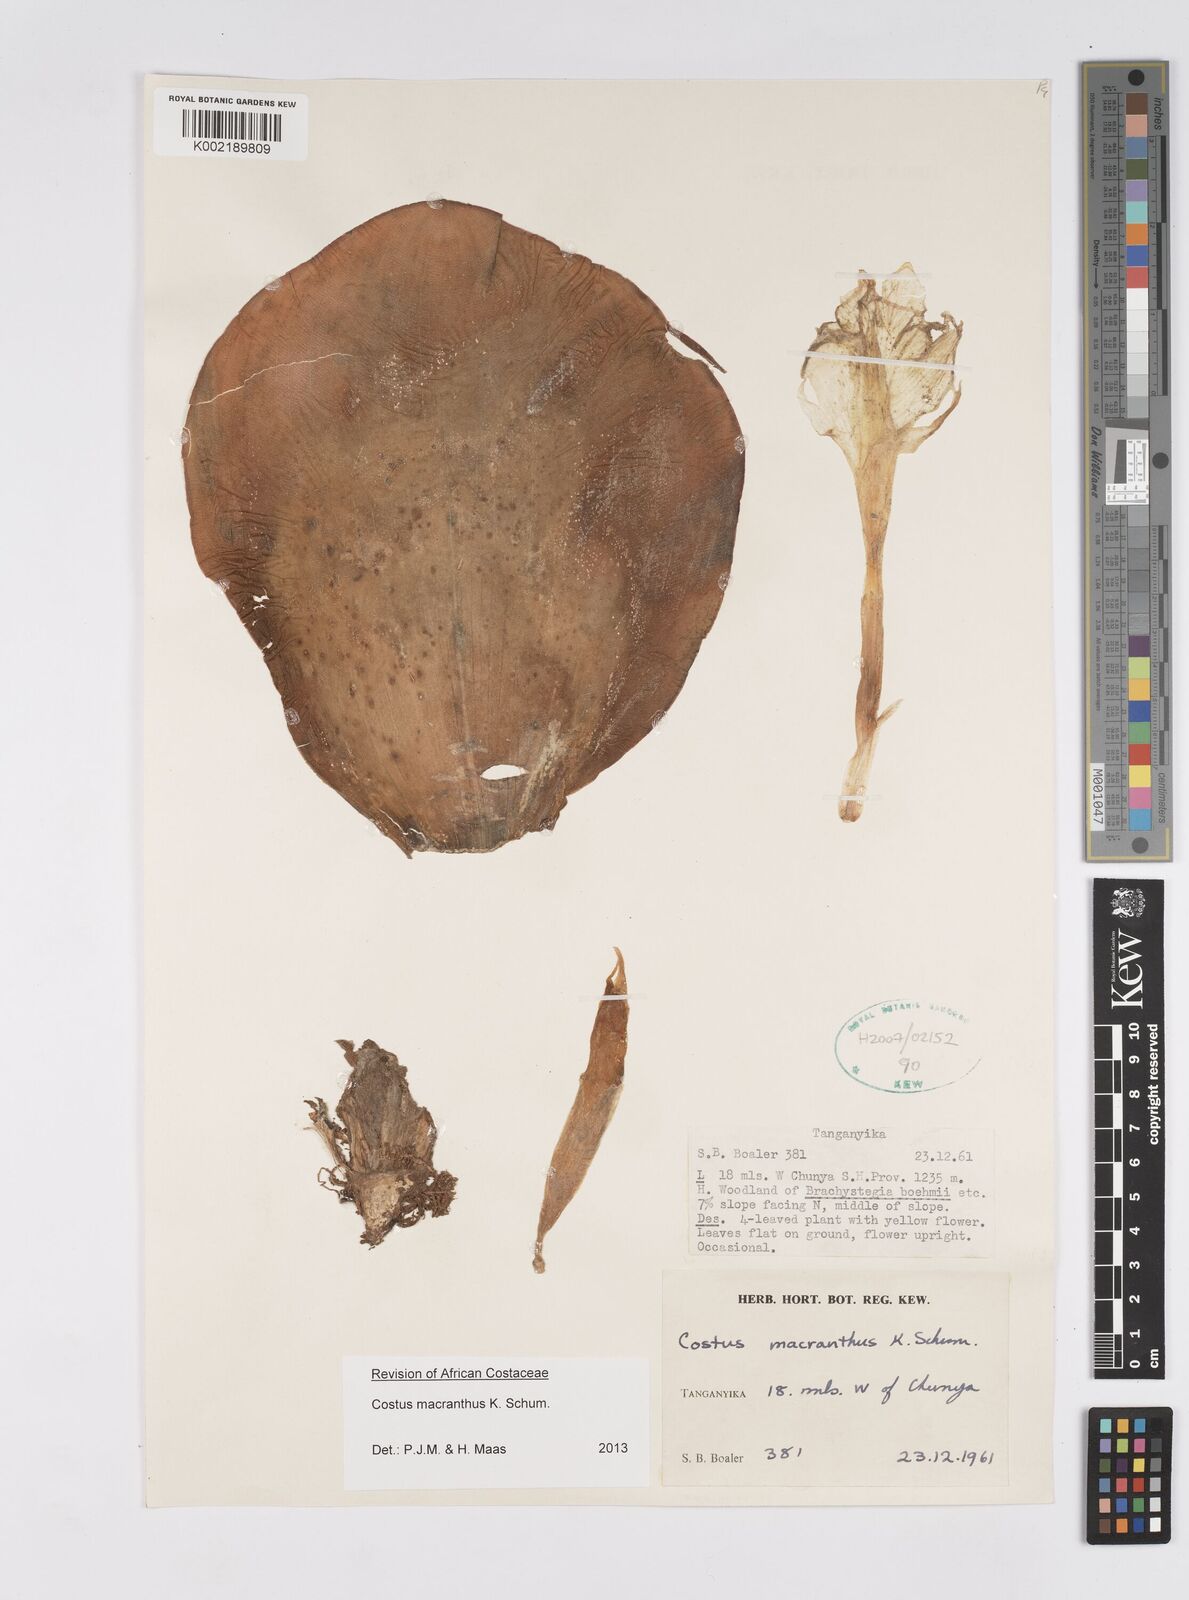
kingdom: Plantae
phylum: Tracheophyta
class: Liliopsida
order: Zingiberales
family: Costaceae
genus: Costus
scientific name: Costus macranthus
